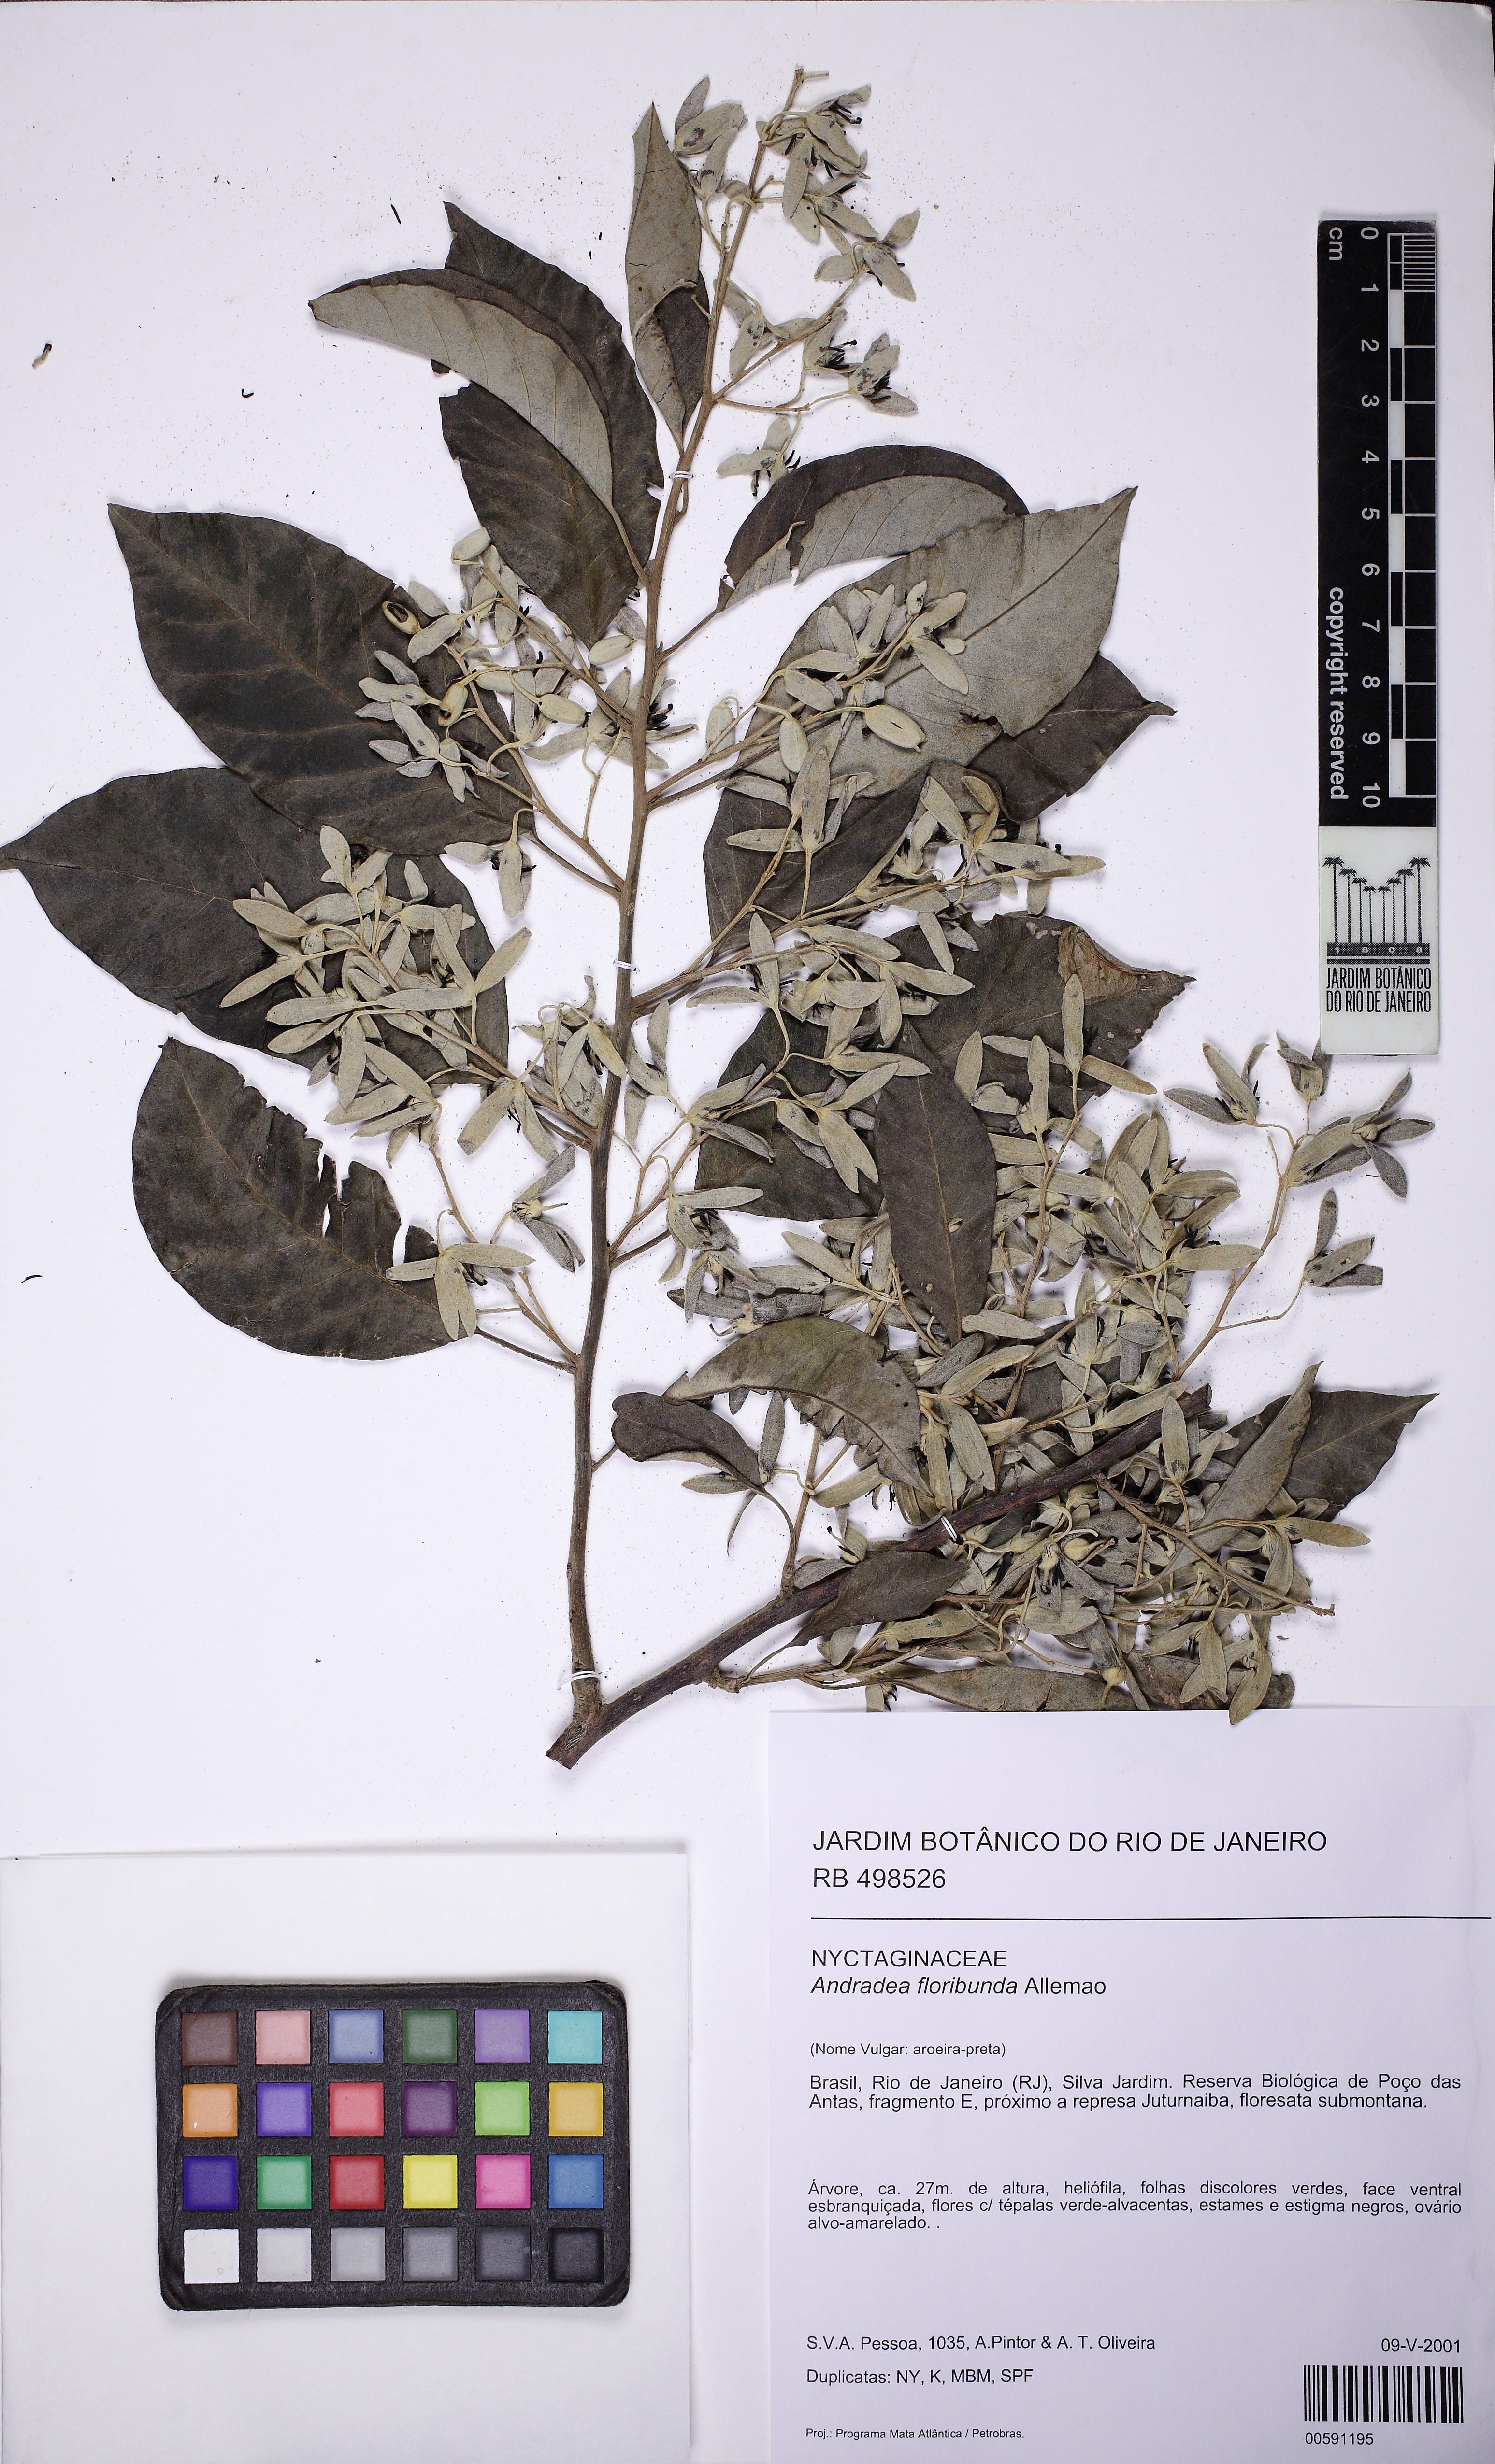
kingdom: Plantae
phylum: Tracheophyta
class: Magnoliopsida
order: Caryophyllales
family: Nyctaginaceae
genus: Andradea
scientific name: Andradea floribunda
